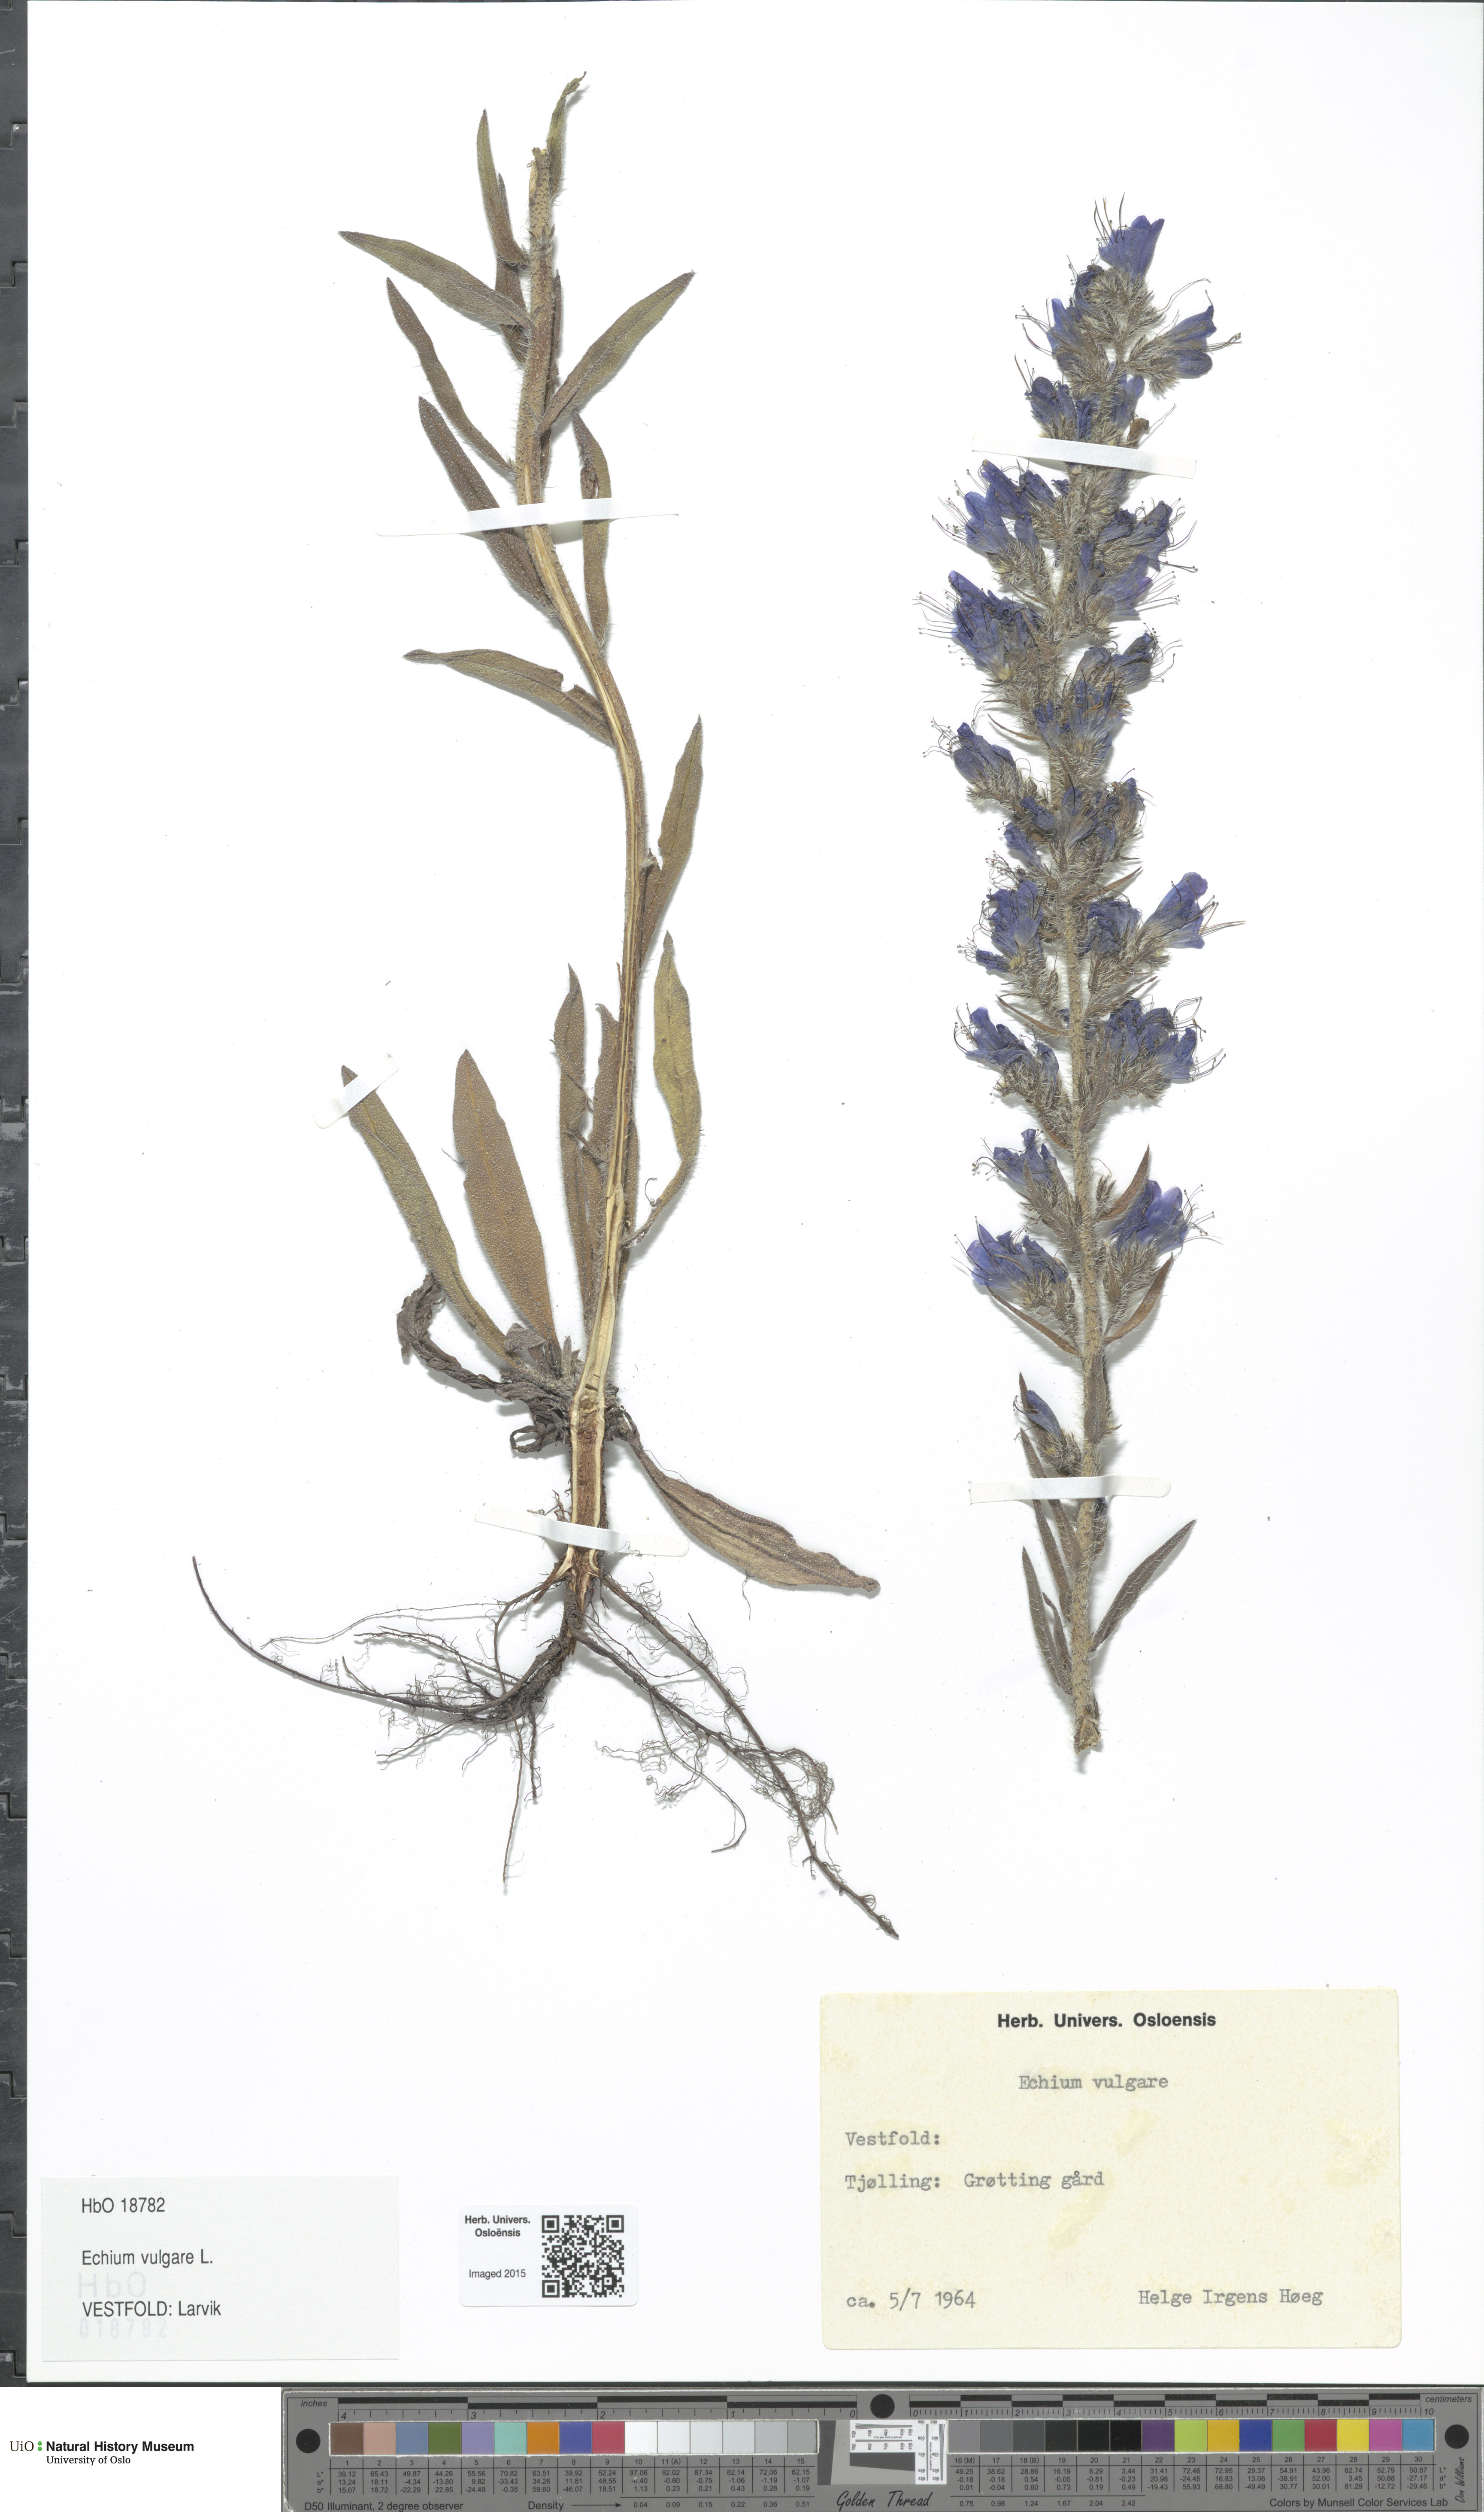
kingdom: Plantae
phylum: Tracheophyta
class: Magnoliopsida
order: Boraginales
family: Boraginaceae
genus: Echium
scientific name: Echium vulgare
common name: Common viper's bugloss
